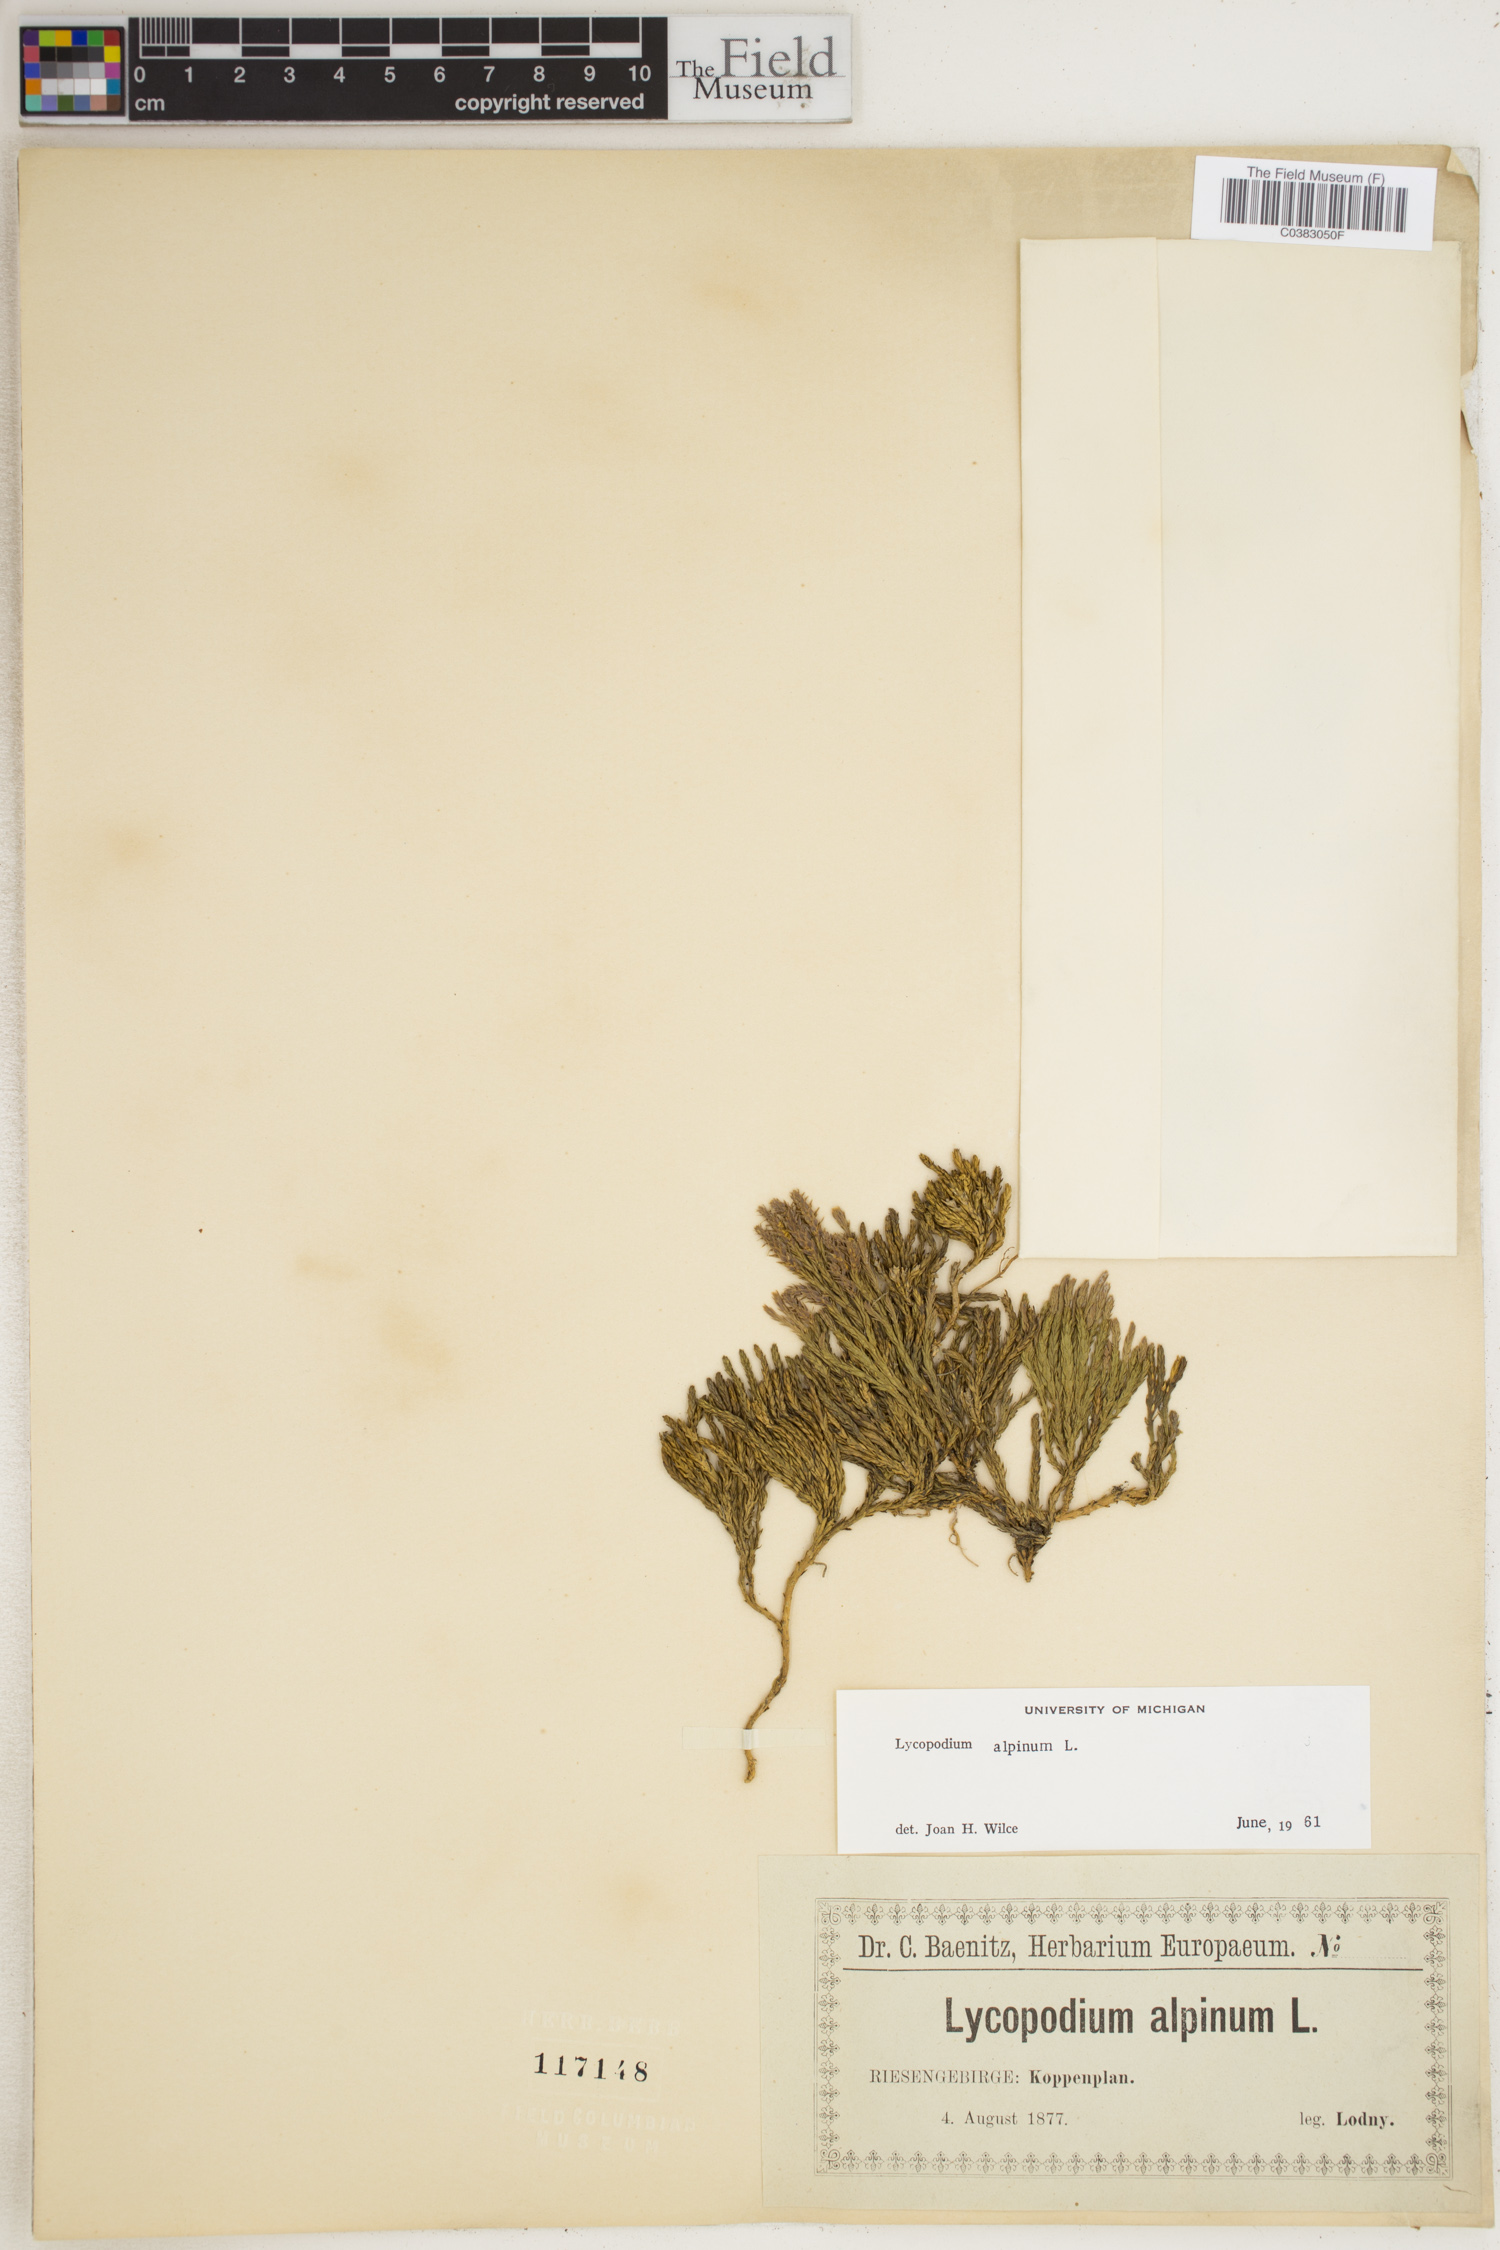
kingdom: Plantae
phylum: Tracheophyta
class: Lycopodiopsida
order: Lycopodiales
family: Lycopodiaceae
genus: Diphasiastrum
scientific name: Diphasiastrum alpinum
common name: Alpine clubmoss
